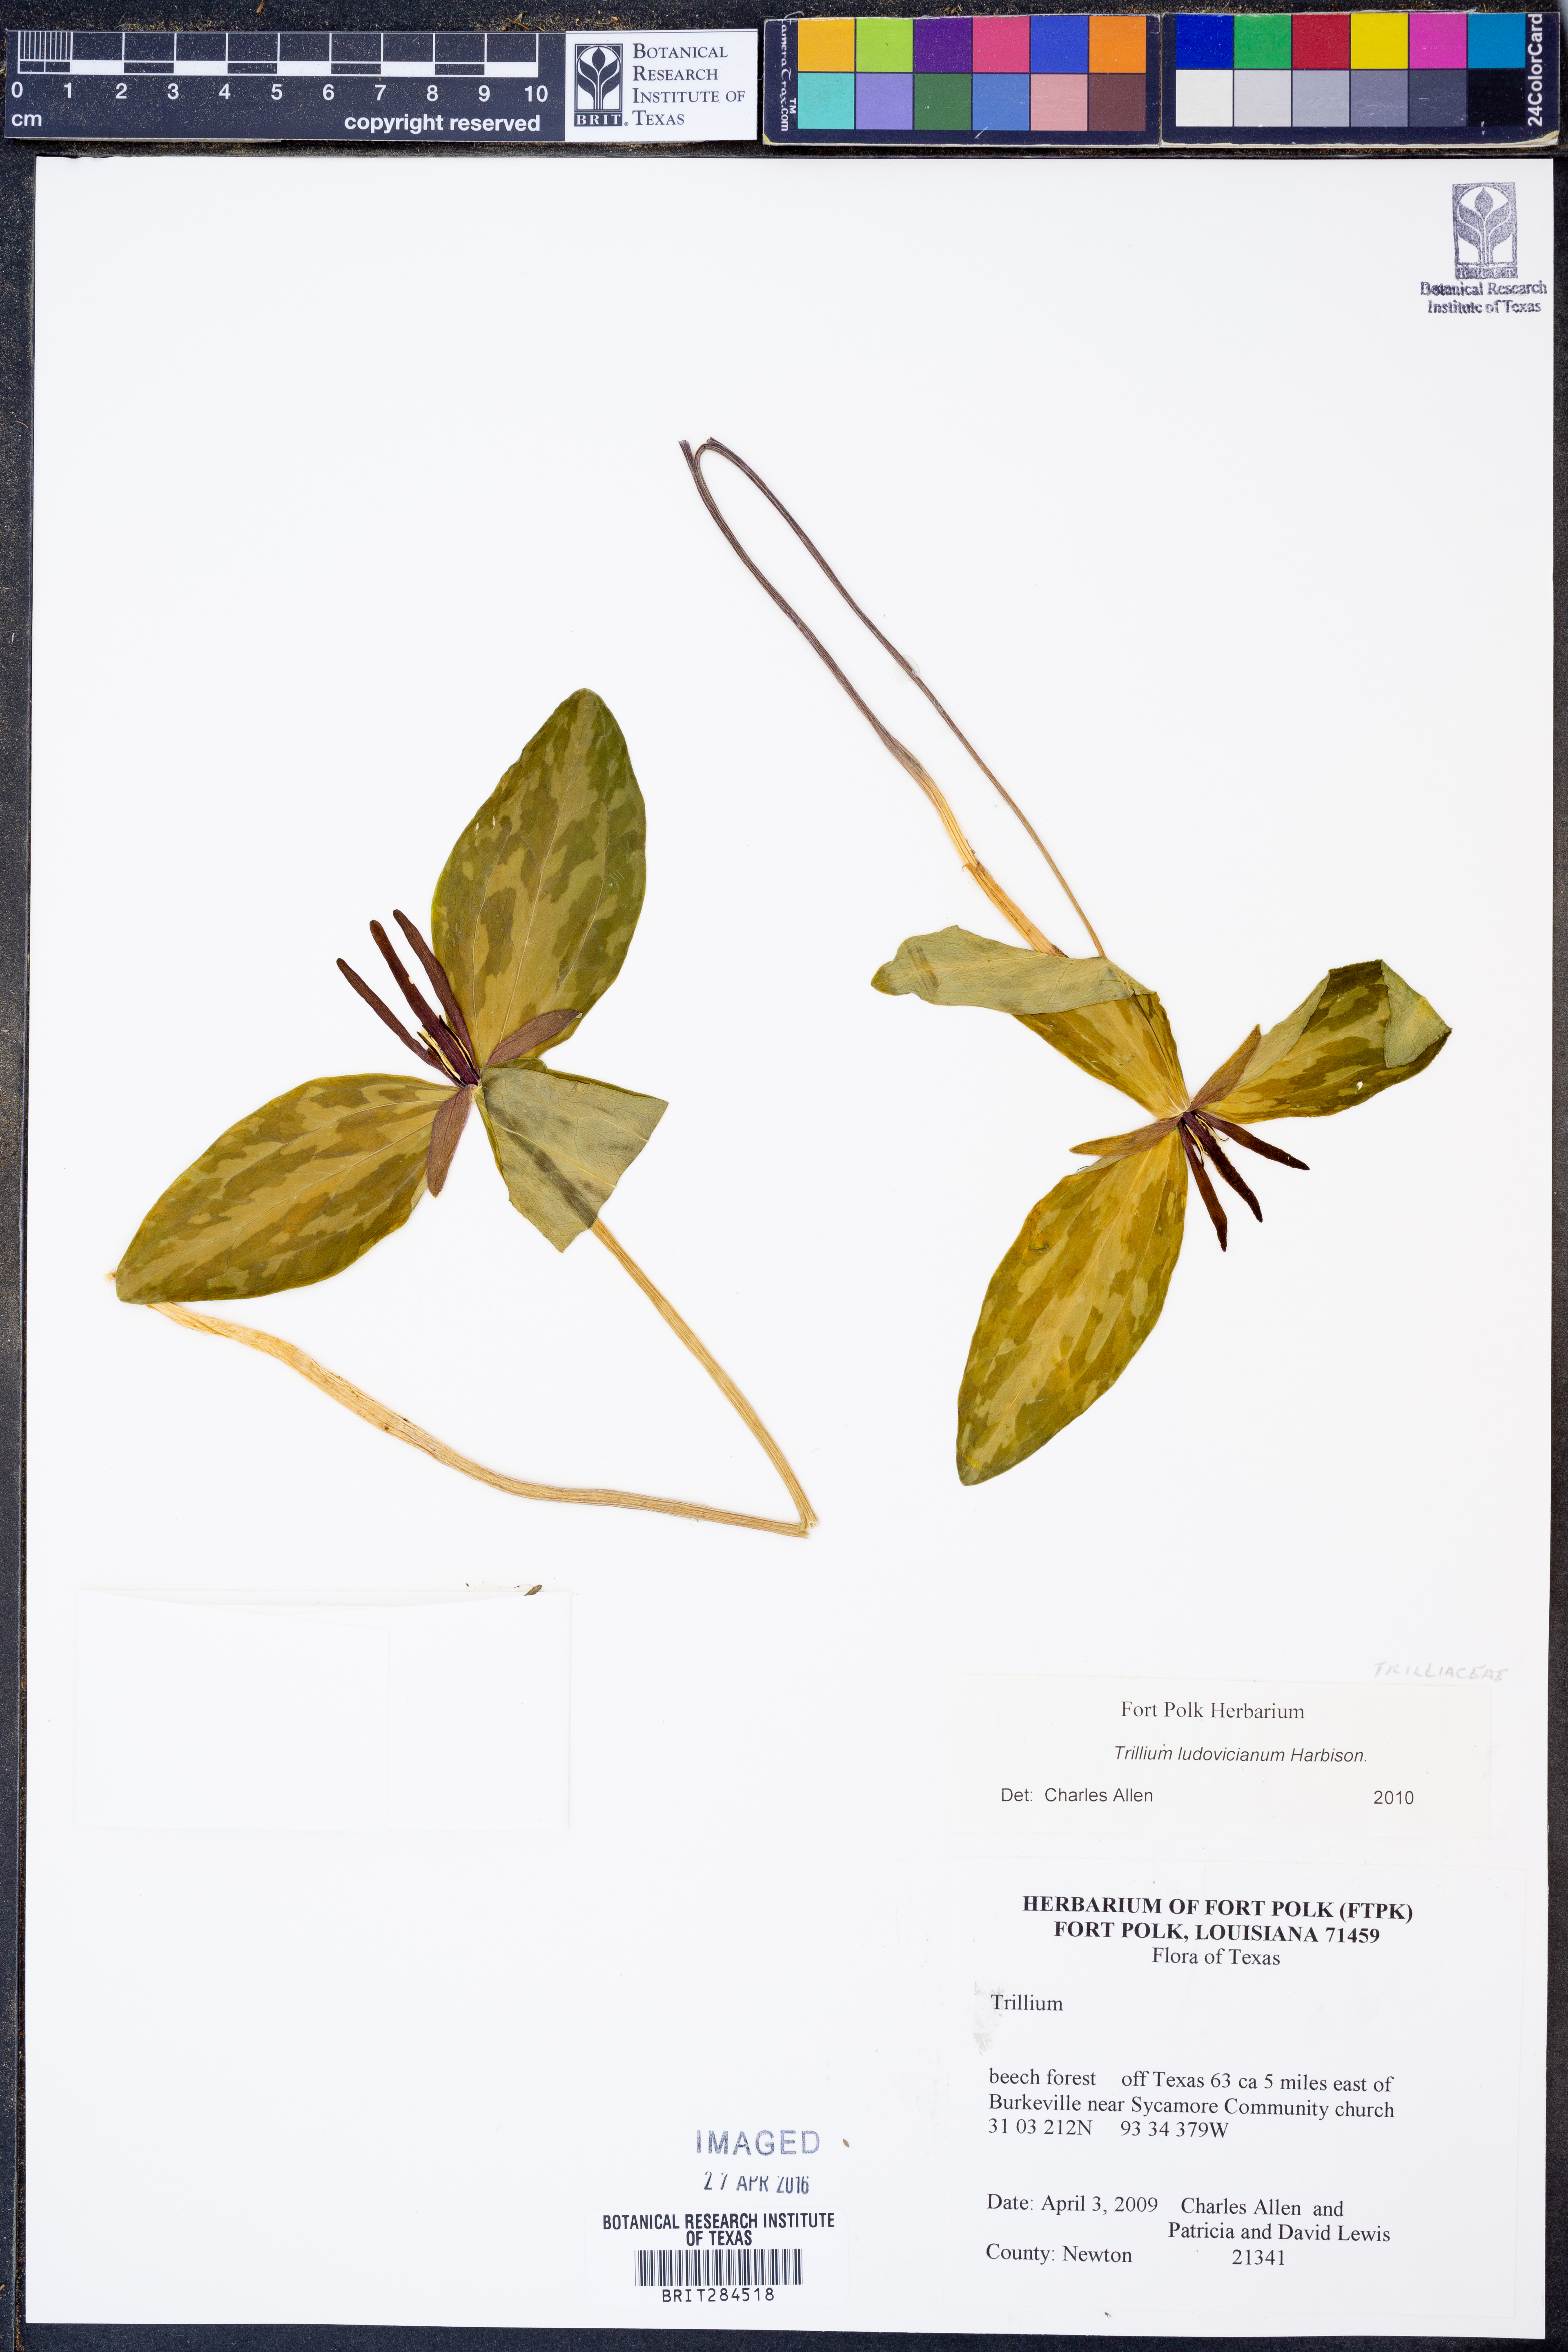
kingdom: Plantae
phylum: Tracheophyta
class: Liliopsida
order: Liliales
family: Melanthiaceae
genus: Trillium
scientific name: Trillium ludovicianum
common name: Louisiana toadshade
